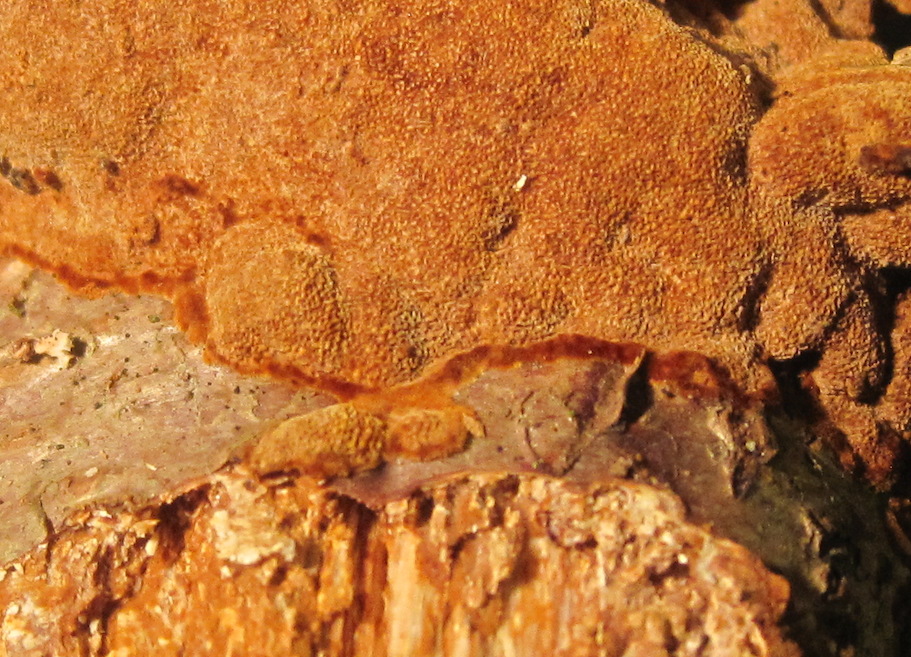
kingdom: Fungi
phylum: Basidiomycota
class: Agaricomycetes
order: Hymenochaetales
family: Hymenochaetaceae
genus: Fuscoporia
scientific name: Fuscoporia ferrea
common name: skorpe-ildporesvamp
